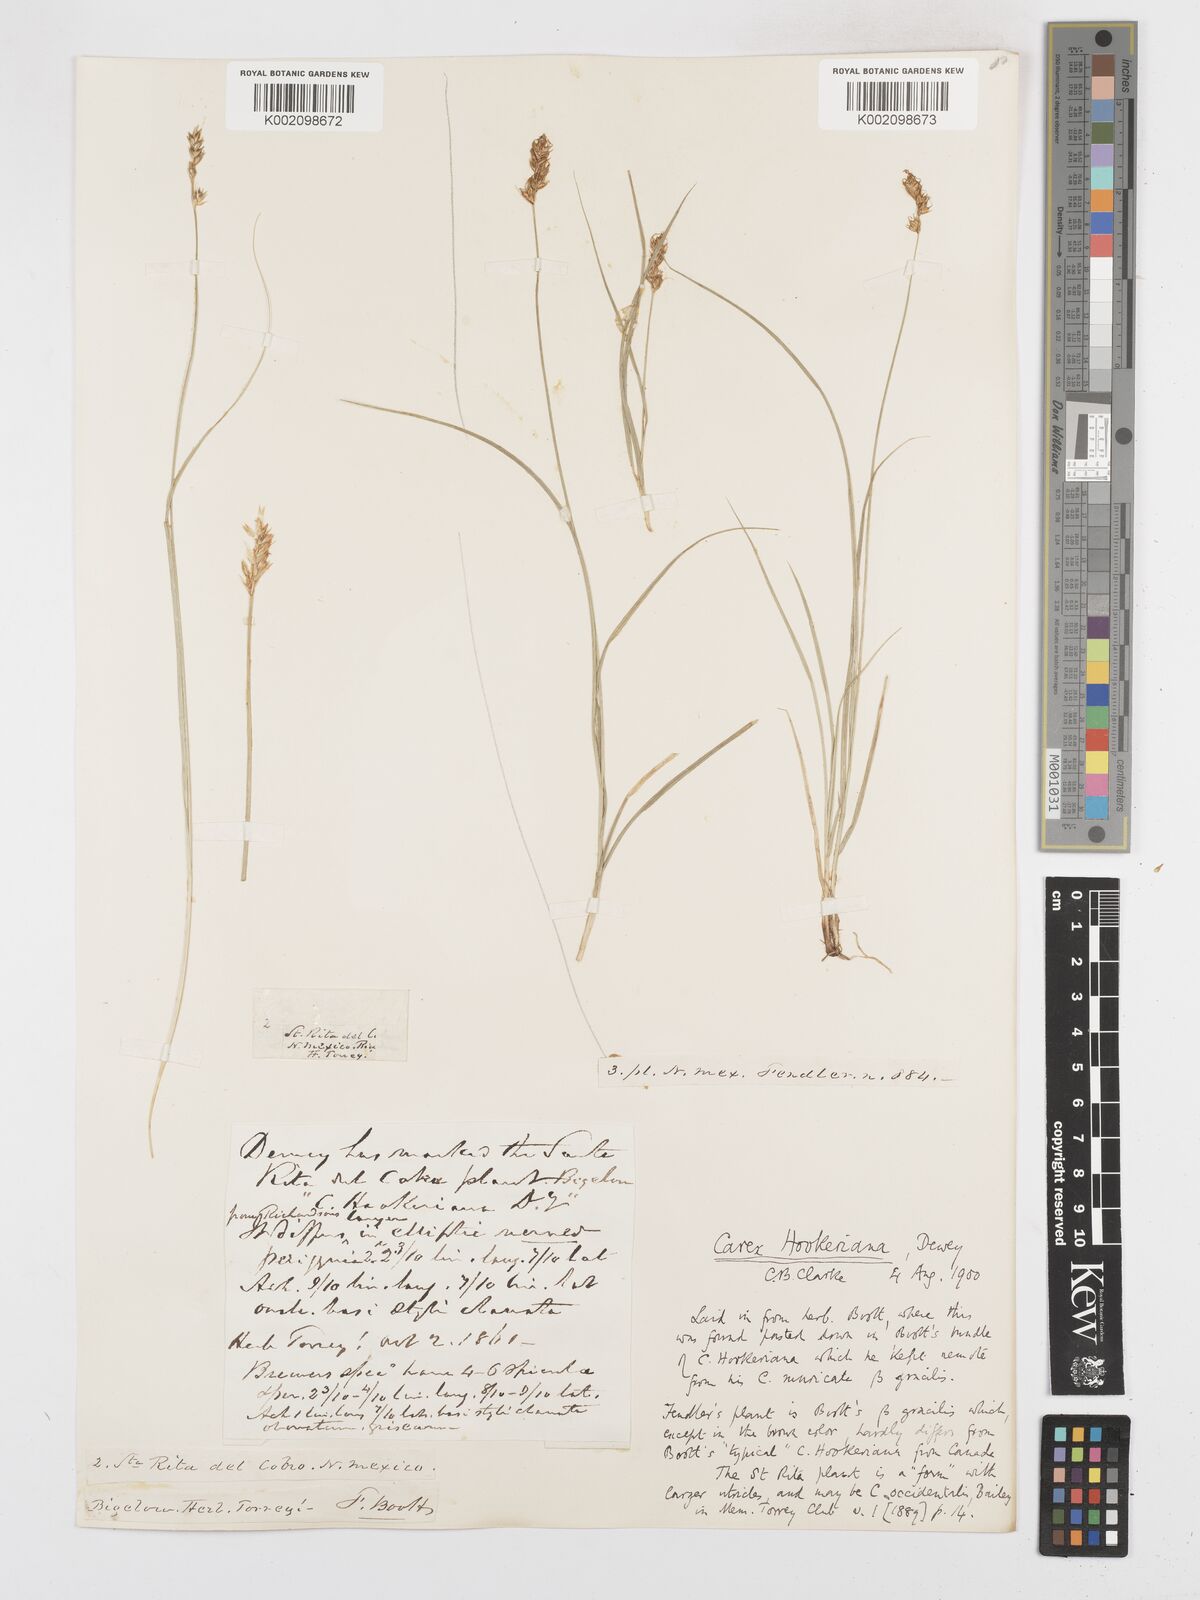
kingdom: Plantae
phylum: Tracheophyta
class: Liliopsida
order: Poales
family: Cyperaceae
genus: Carex
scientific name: Carex tumulicola
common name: Splitawn sedge
